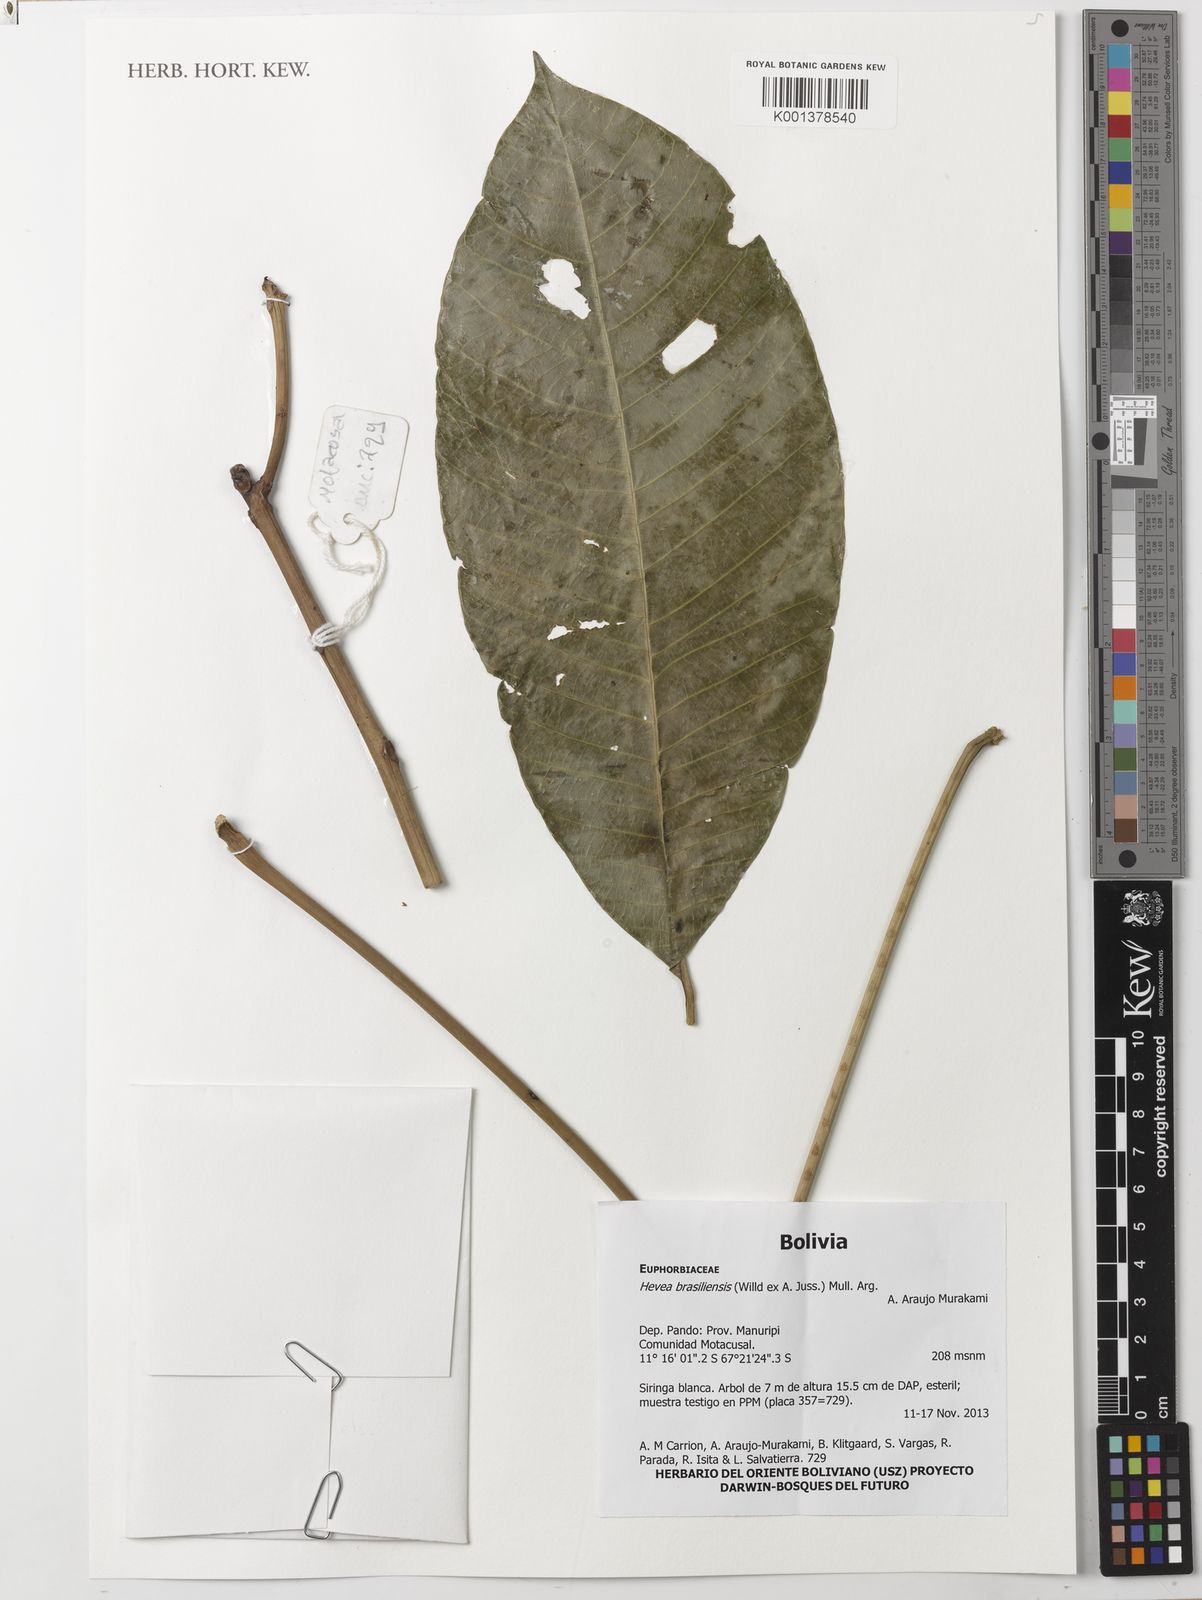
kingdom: Plantae
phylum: Tracheophyta
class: Magnoliopsida
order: Malpighiales
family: Euphorbiaceae
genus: Hevea
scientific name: Hevea brasiliensis
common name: Natural rubber
